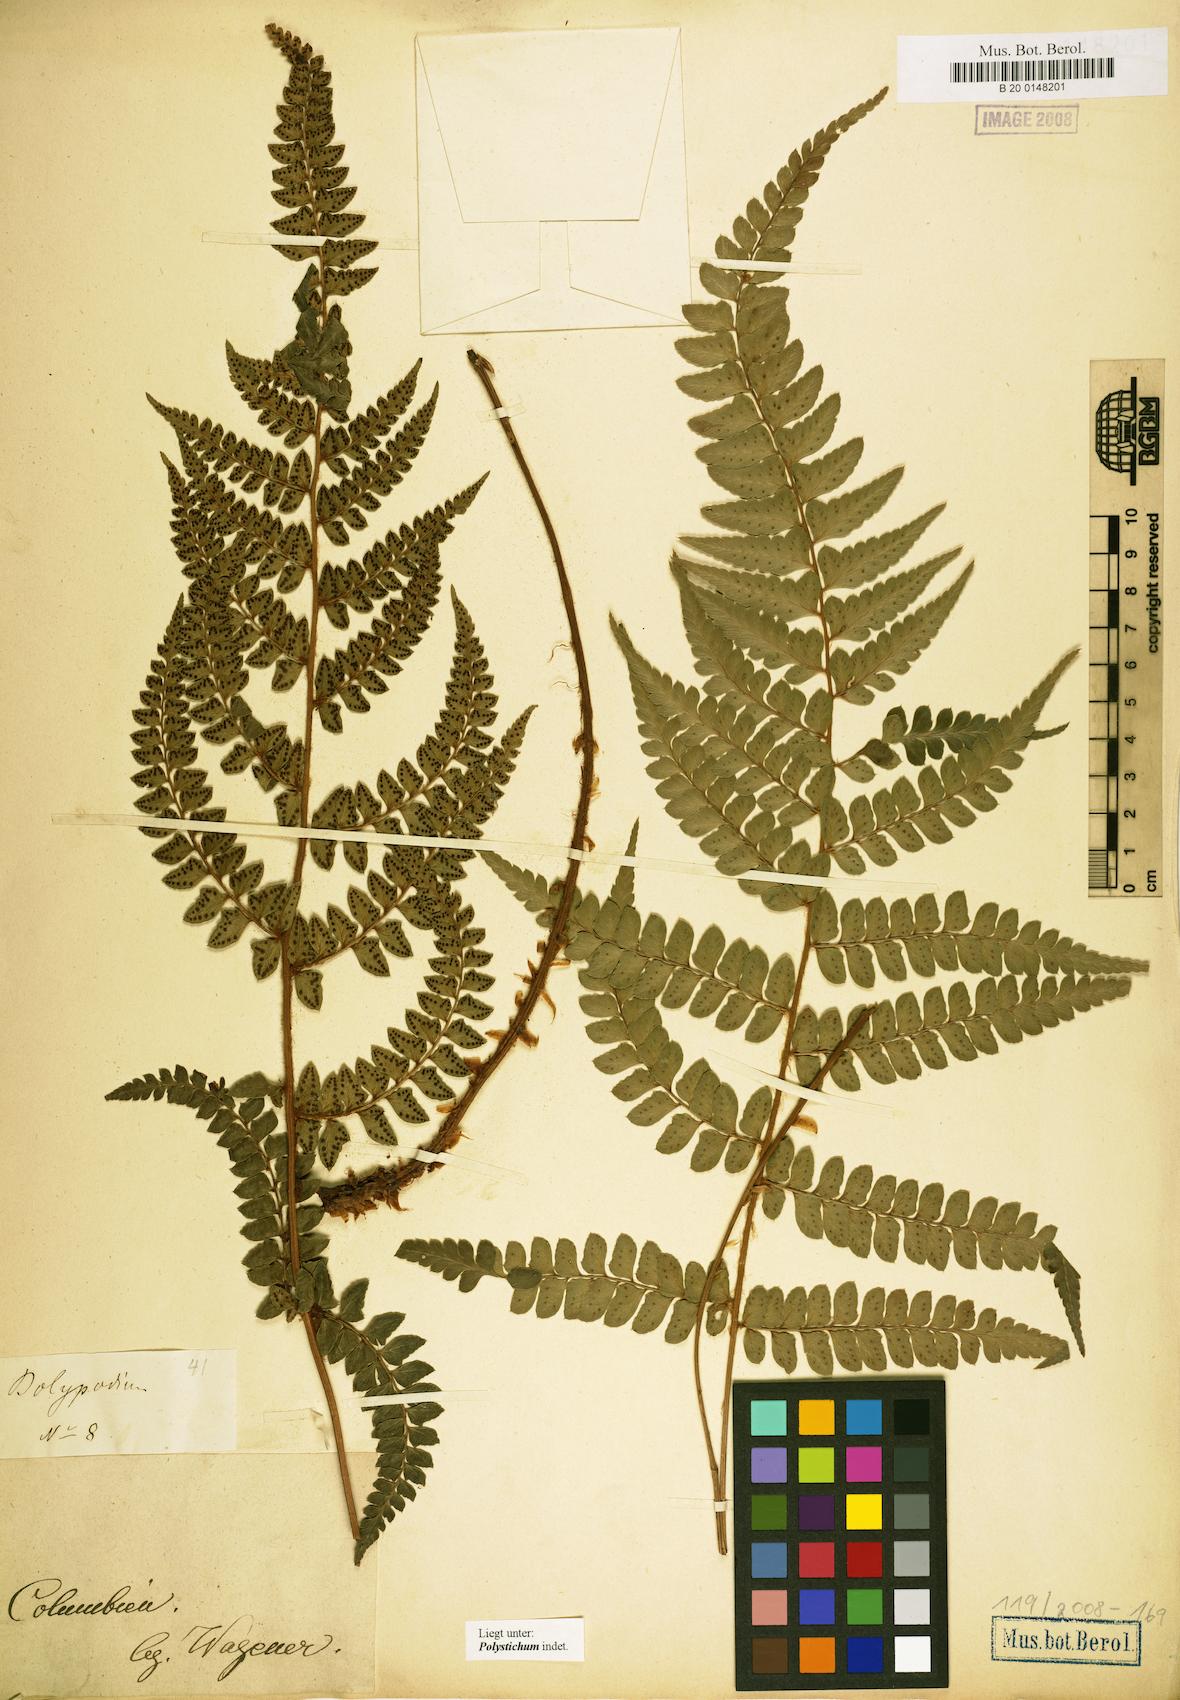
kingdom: Plantae
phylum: Tracheophyta
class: Polypodiopsida
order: Polypodiales
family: Dryopteridaceae
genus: Polystichum
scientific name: Polystichum
